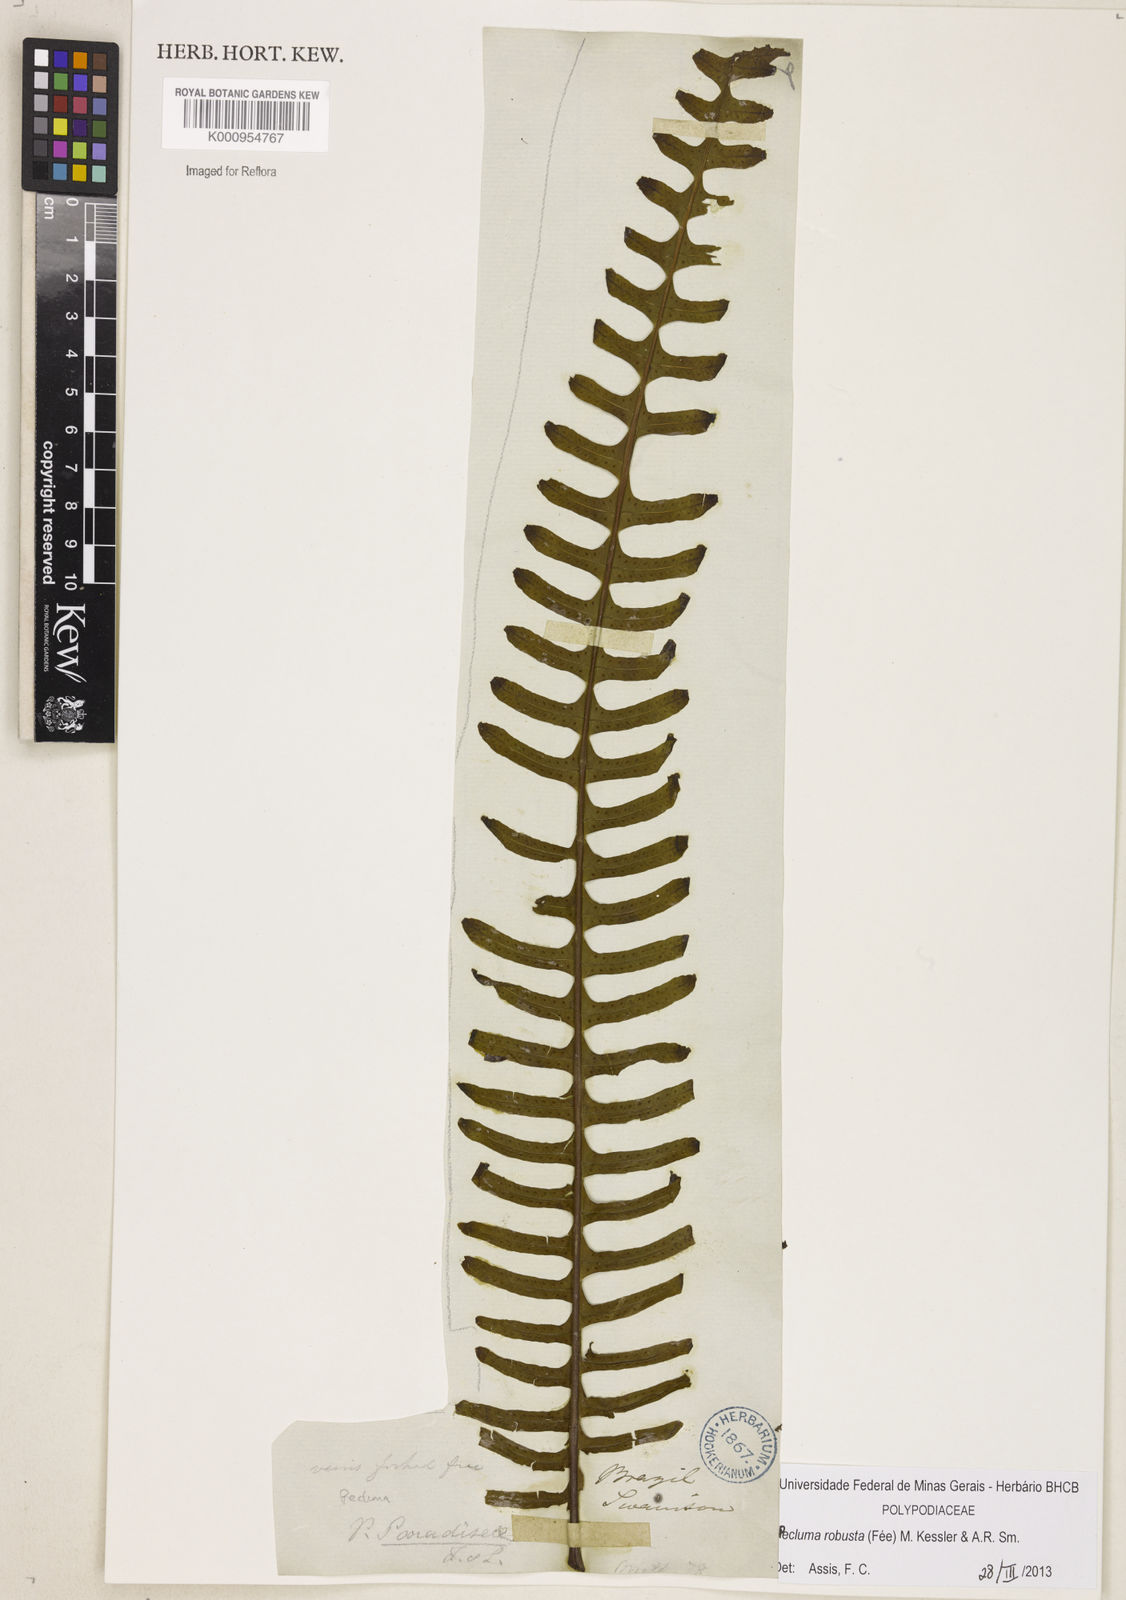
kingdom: Plantae
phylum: Tracheophyta
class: Polypodiopsida
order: Polypodiales
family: Polypodiaceae
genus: Pecluma
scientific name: Pecluma
